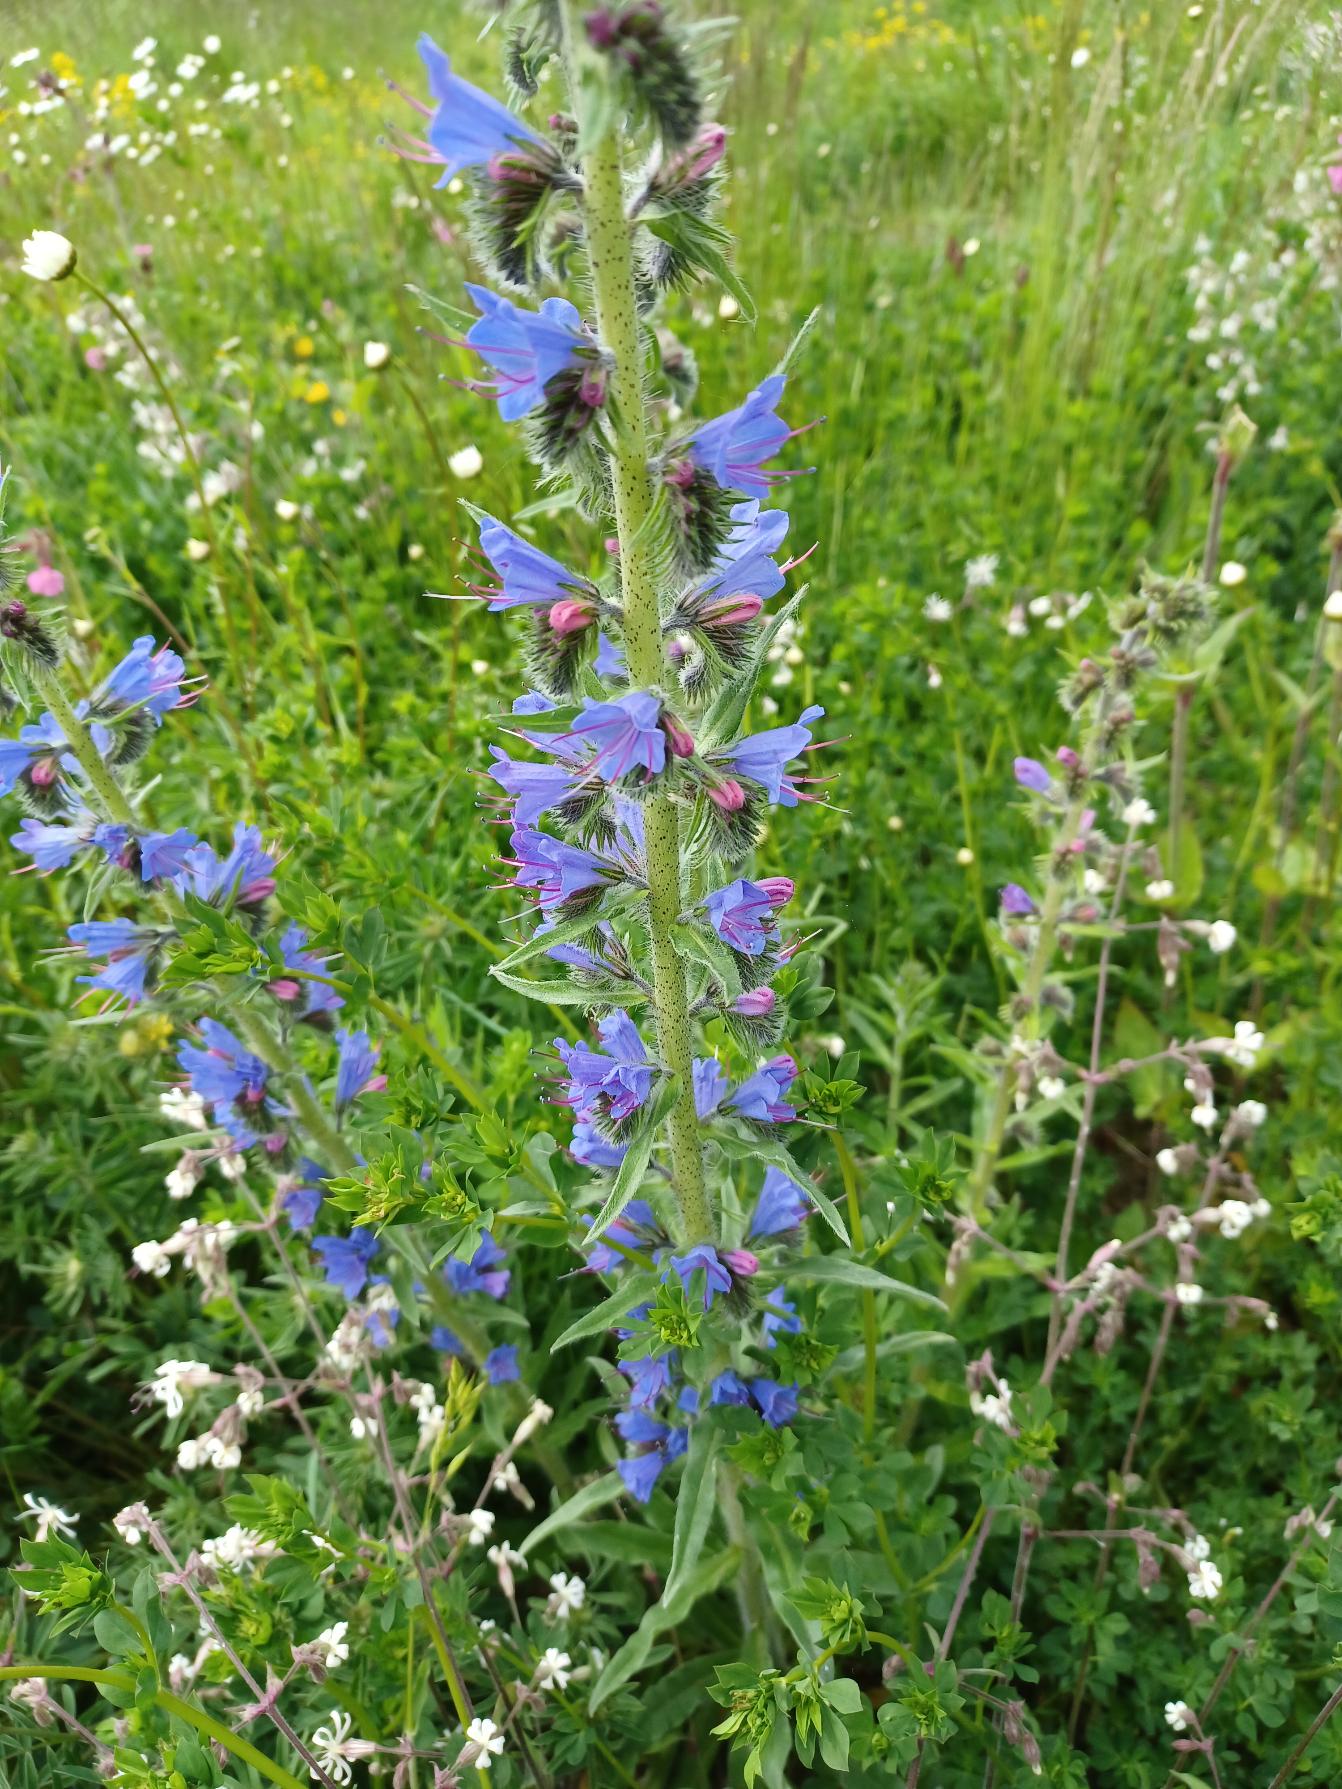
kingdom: Plantae
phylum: Tracheophyta
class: Magnoliopsida
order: Boraginales
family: Boraginaceae
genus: Echium
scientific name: Echium vulgare
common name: Slangehoved
